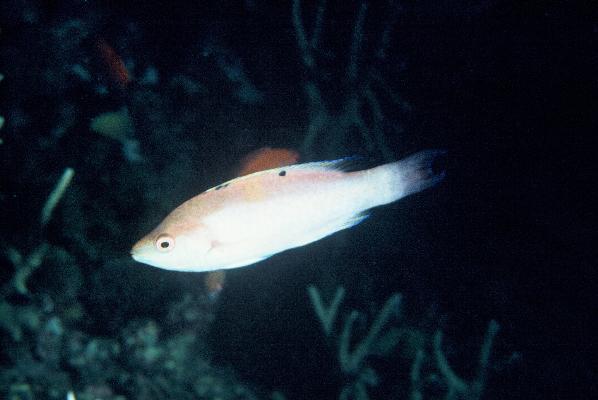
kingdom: Animalia
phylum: Chordata
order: Perciformes
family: Labridae
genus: Cirrhilabrus
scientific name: Cirrhilabrus walindi
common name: Walindi fairy-warsse
